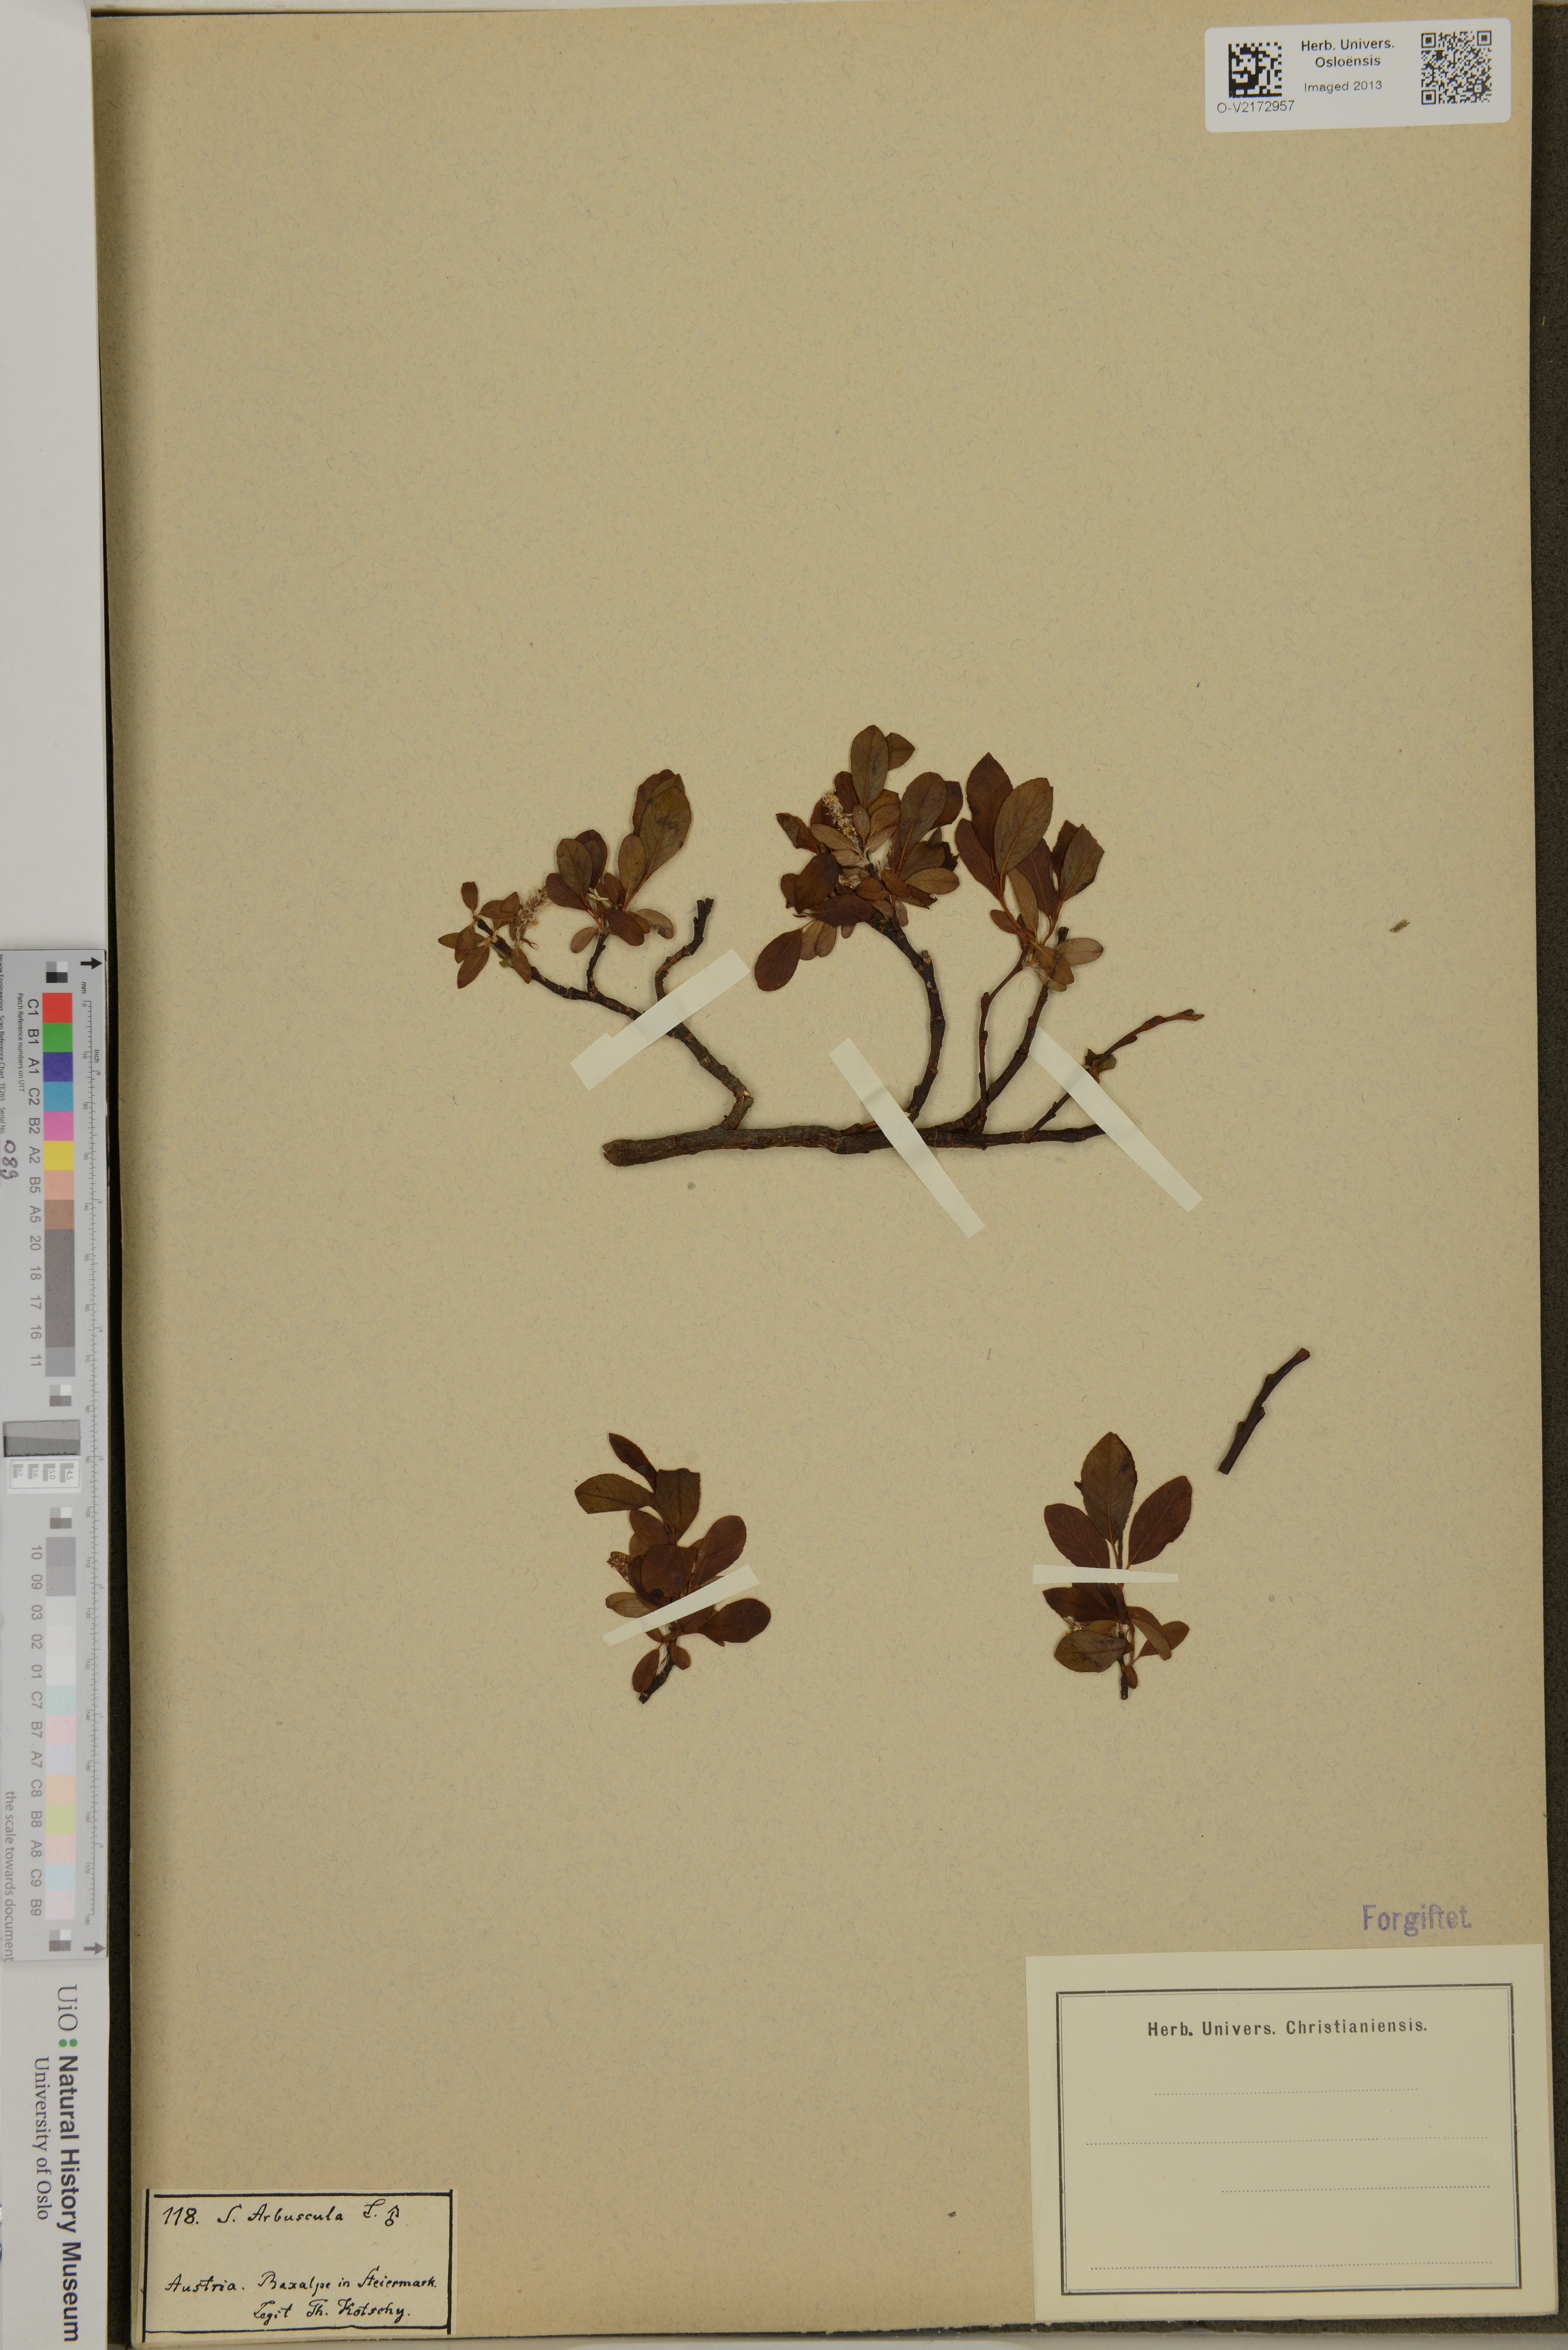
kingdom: Plantae
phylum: Tracheophyta
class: Magnoliopsida
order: Malpighiales
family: Salicaceae
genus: Salix
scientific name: Salix arbuscula
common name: Mountain willow
